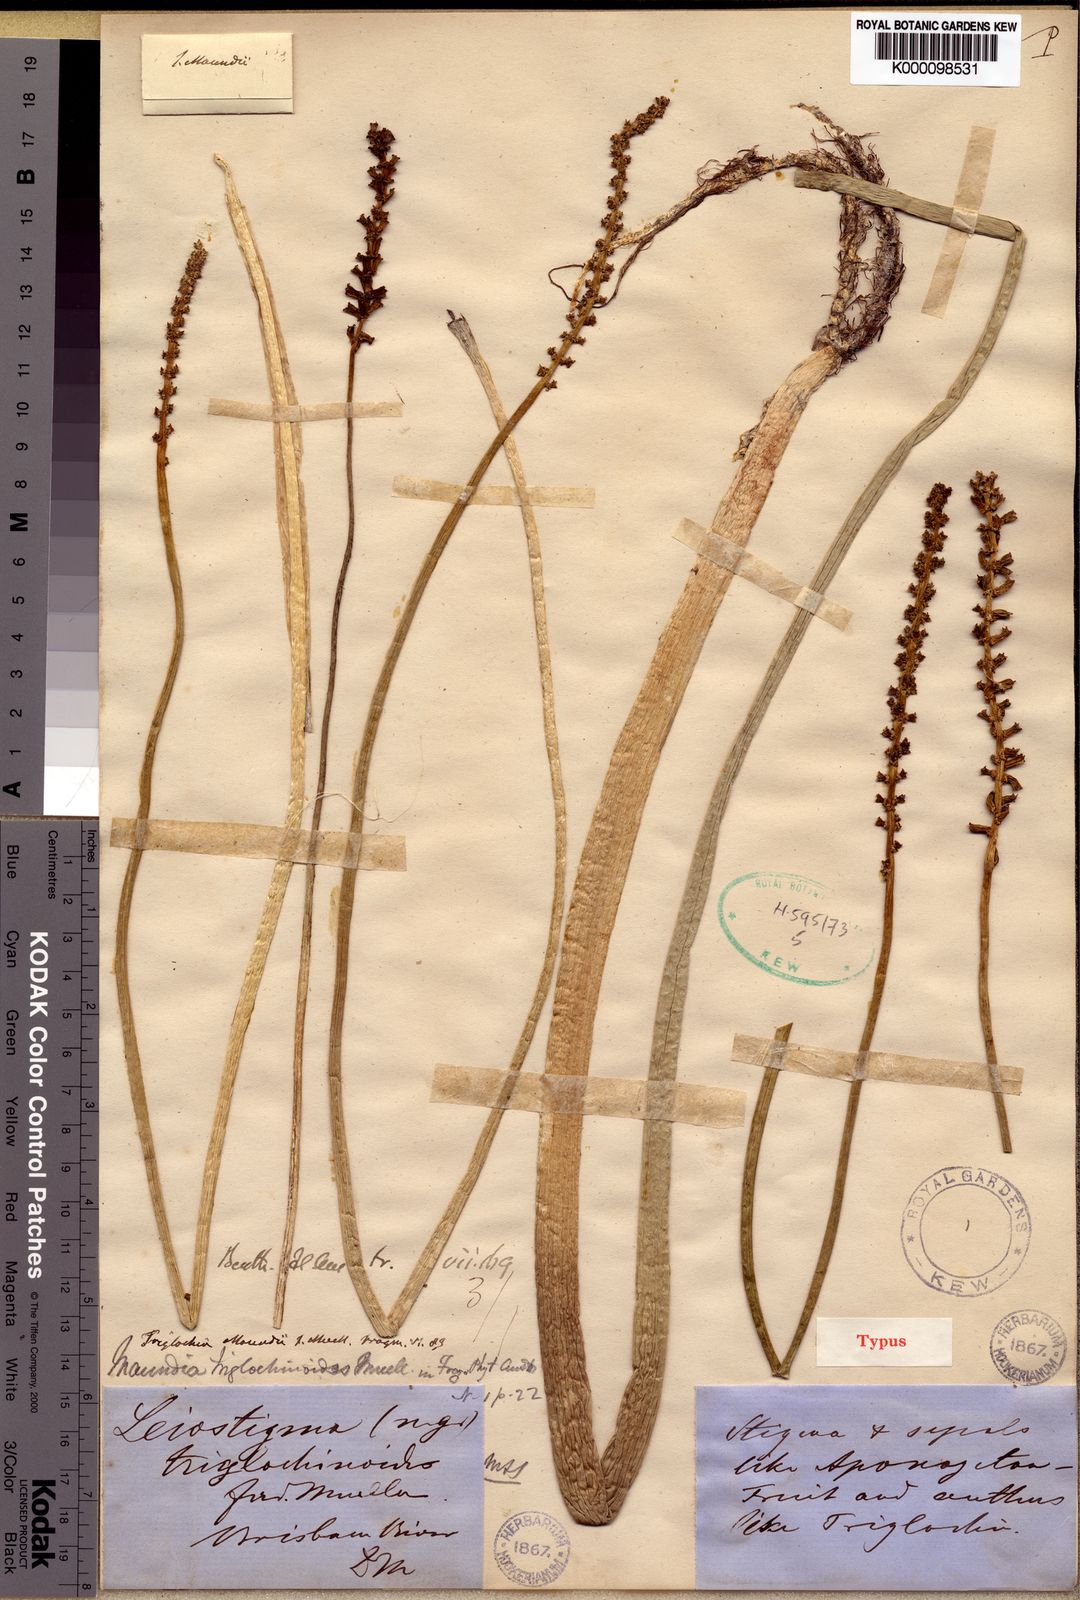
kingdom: Plantae
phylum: Tracheophyta
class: Liliopsida
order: Alismatales
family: Maundiaceae
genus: Maundia
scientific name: Maundia triglochinoides
